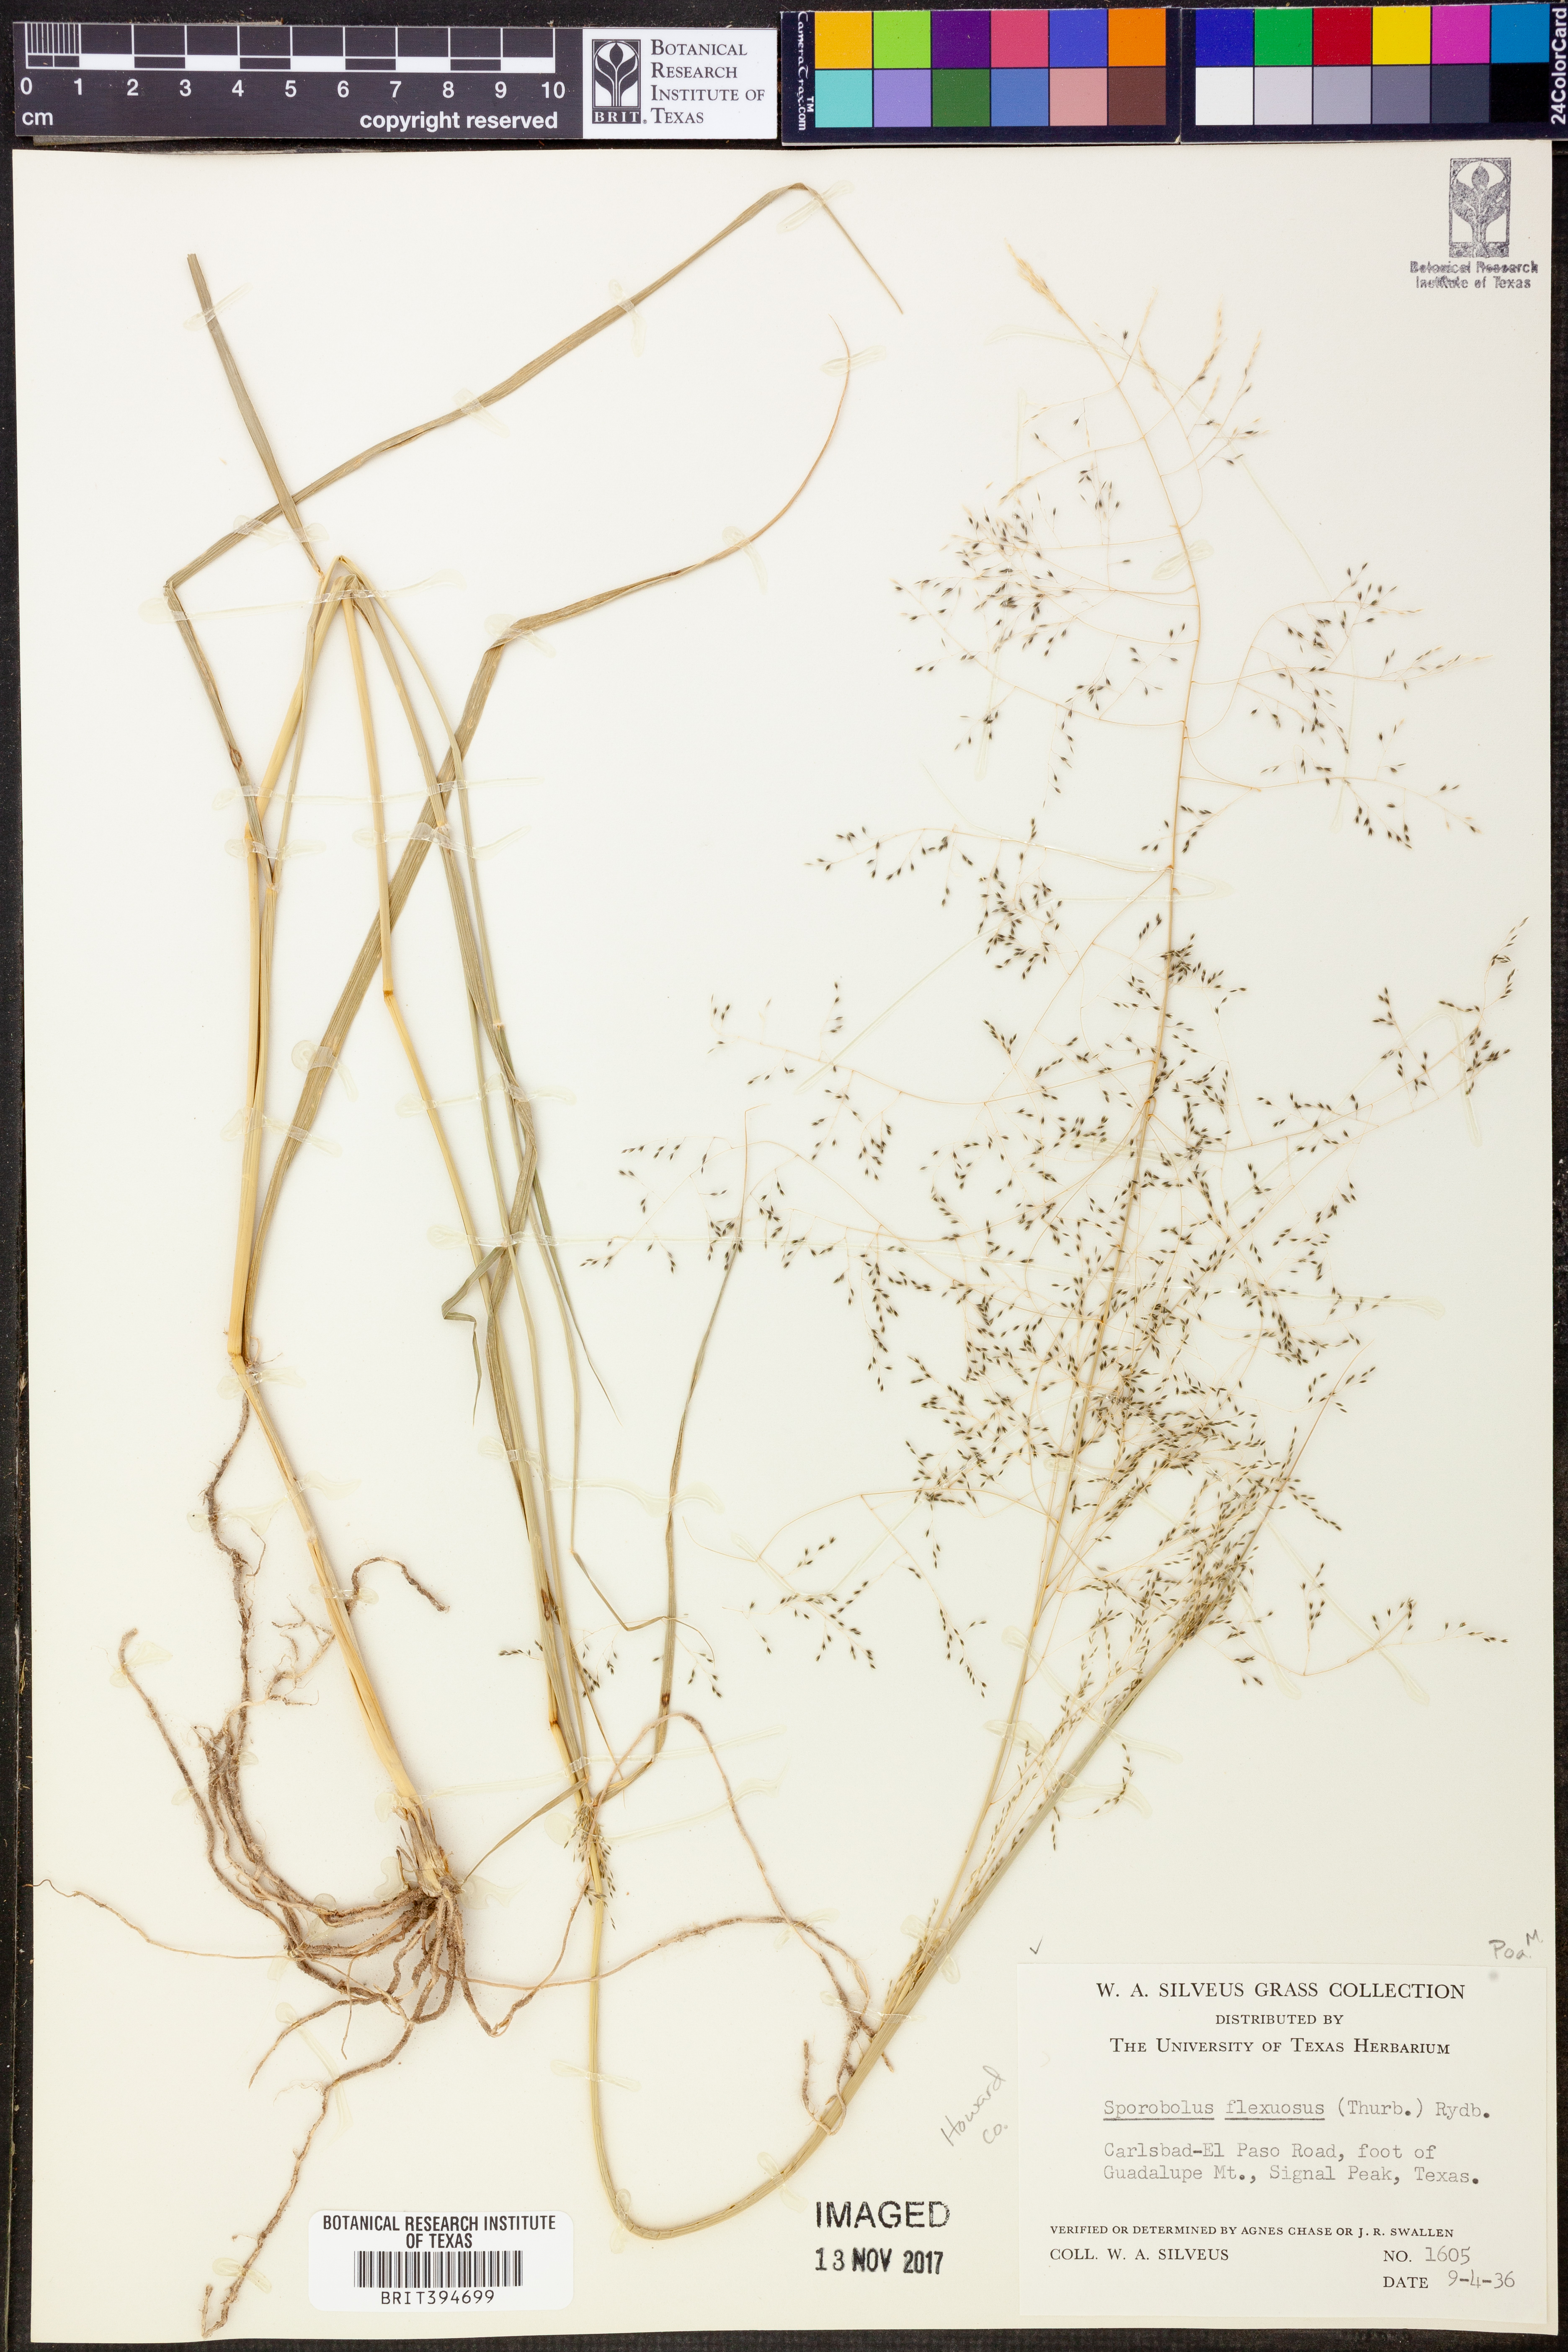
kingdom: Plantae
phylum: Tracheophyta
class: Liliopsida
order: Poales
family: Poaceae
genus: Sporobolus
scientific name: Sporobolus flexuosus
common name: Mesa dropseed
